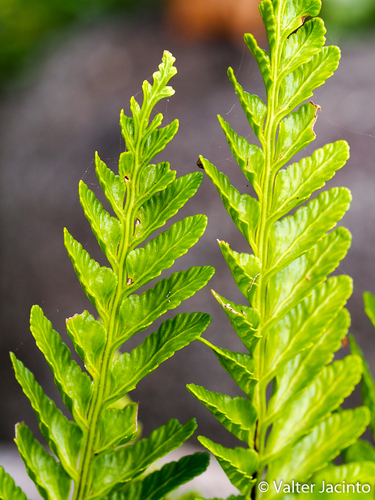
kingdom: Plantae
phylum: Tracheophyta
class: Polypodiopsida
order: Polypodiales
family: Aspleniaceae
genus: Asplenium
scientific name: Asplenium marinum
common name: Sea spleenwort
